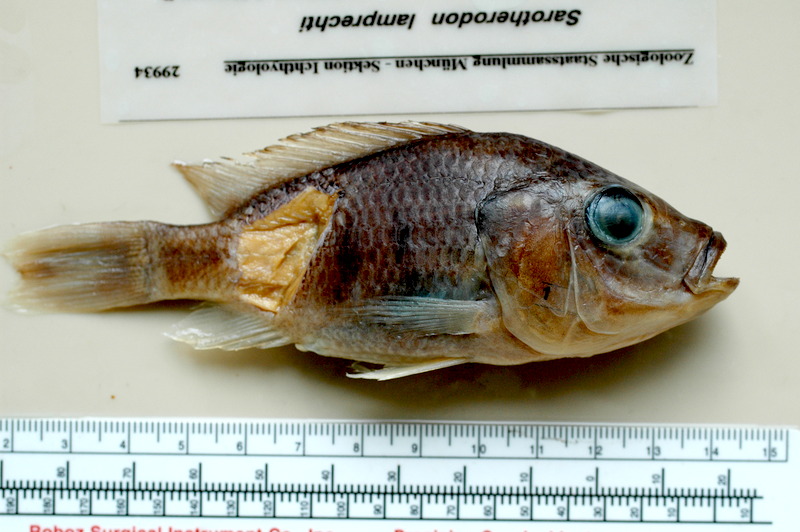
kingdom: Animalia
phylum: Chordata
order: Perciformes
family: Cichlidae
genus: Sarotherodon
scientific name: Sarotherodon lamprechti
